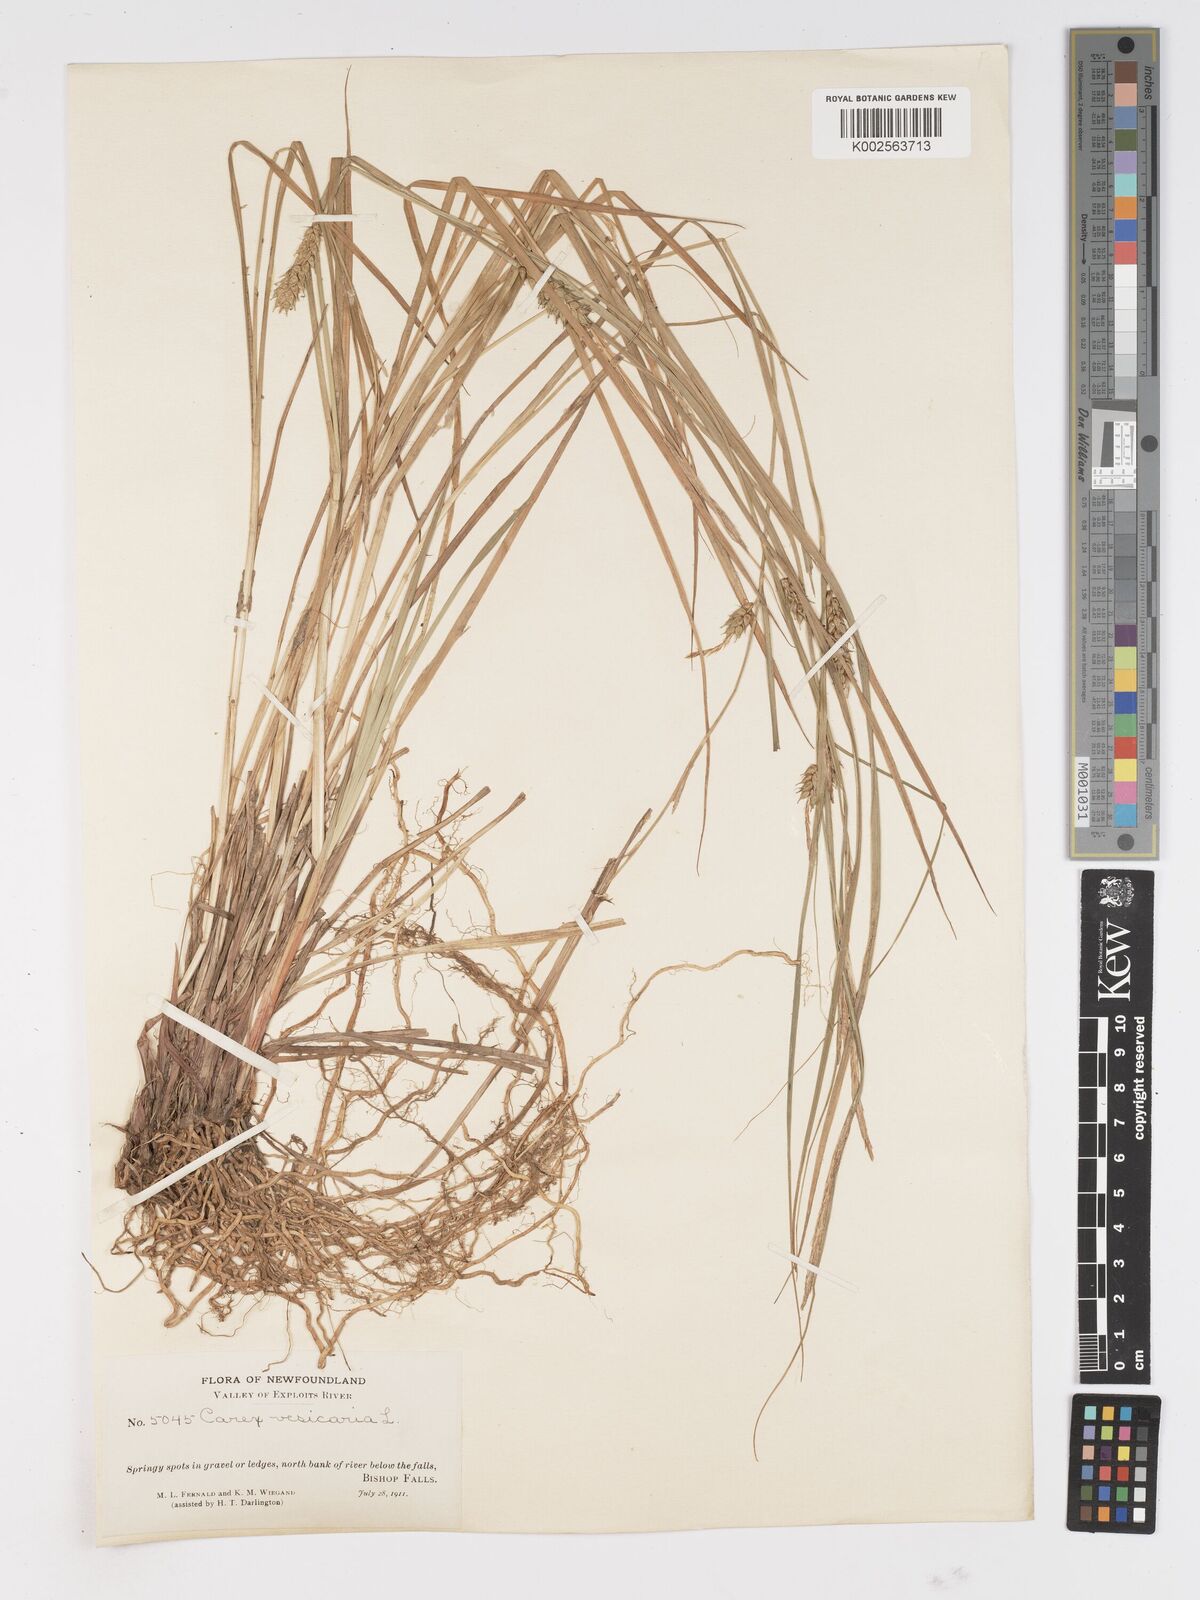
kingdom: Plantae
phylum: Tracheophyta
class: Liliopsida
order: Poales
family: Cyperaceae
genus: Carex
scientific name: Carex vesicaria
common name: Bladder-sedge
